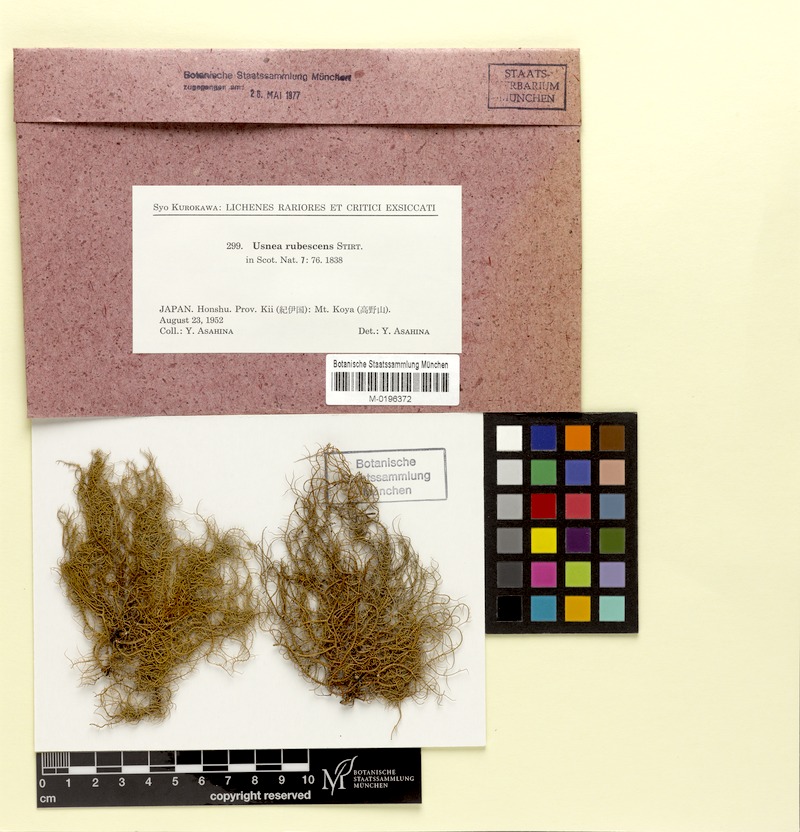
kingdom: Fungi
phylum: Ascomycota
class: Lecanoromycetes
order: Lecanorales
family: Parmeliaceae
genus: Usnea
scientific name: Usnea rubrotincta
